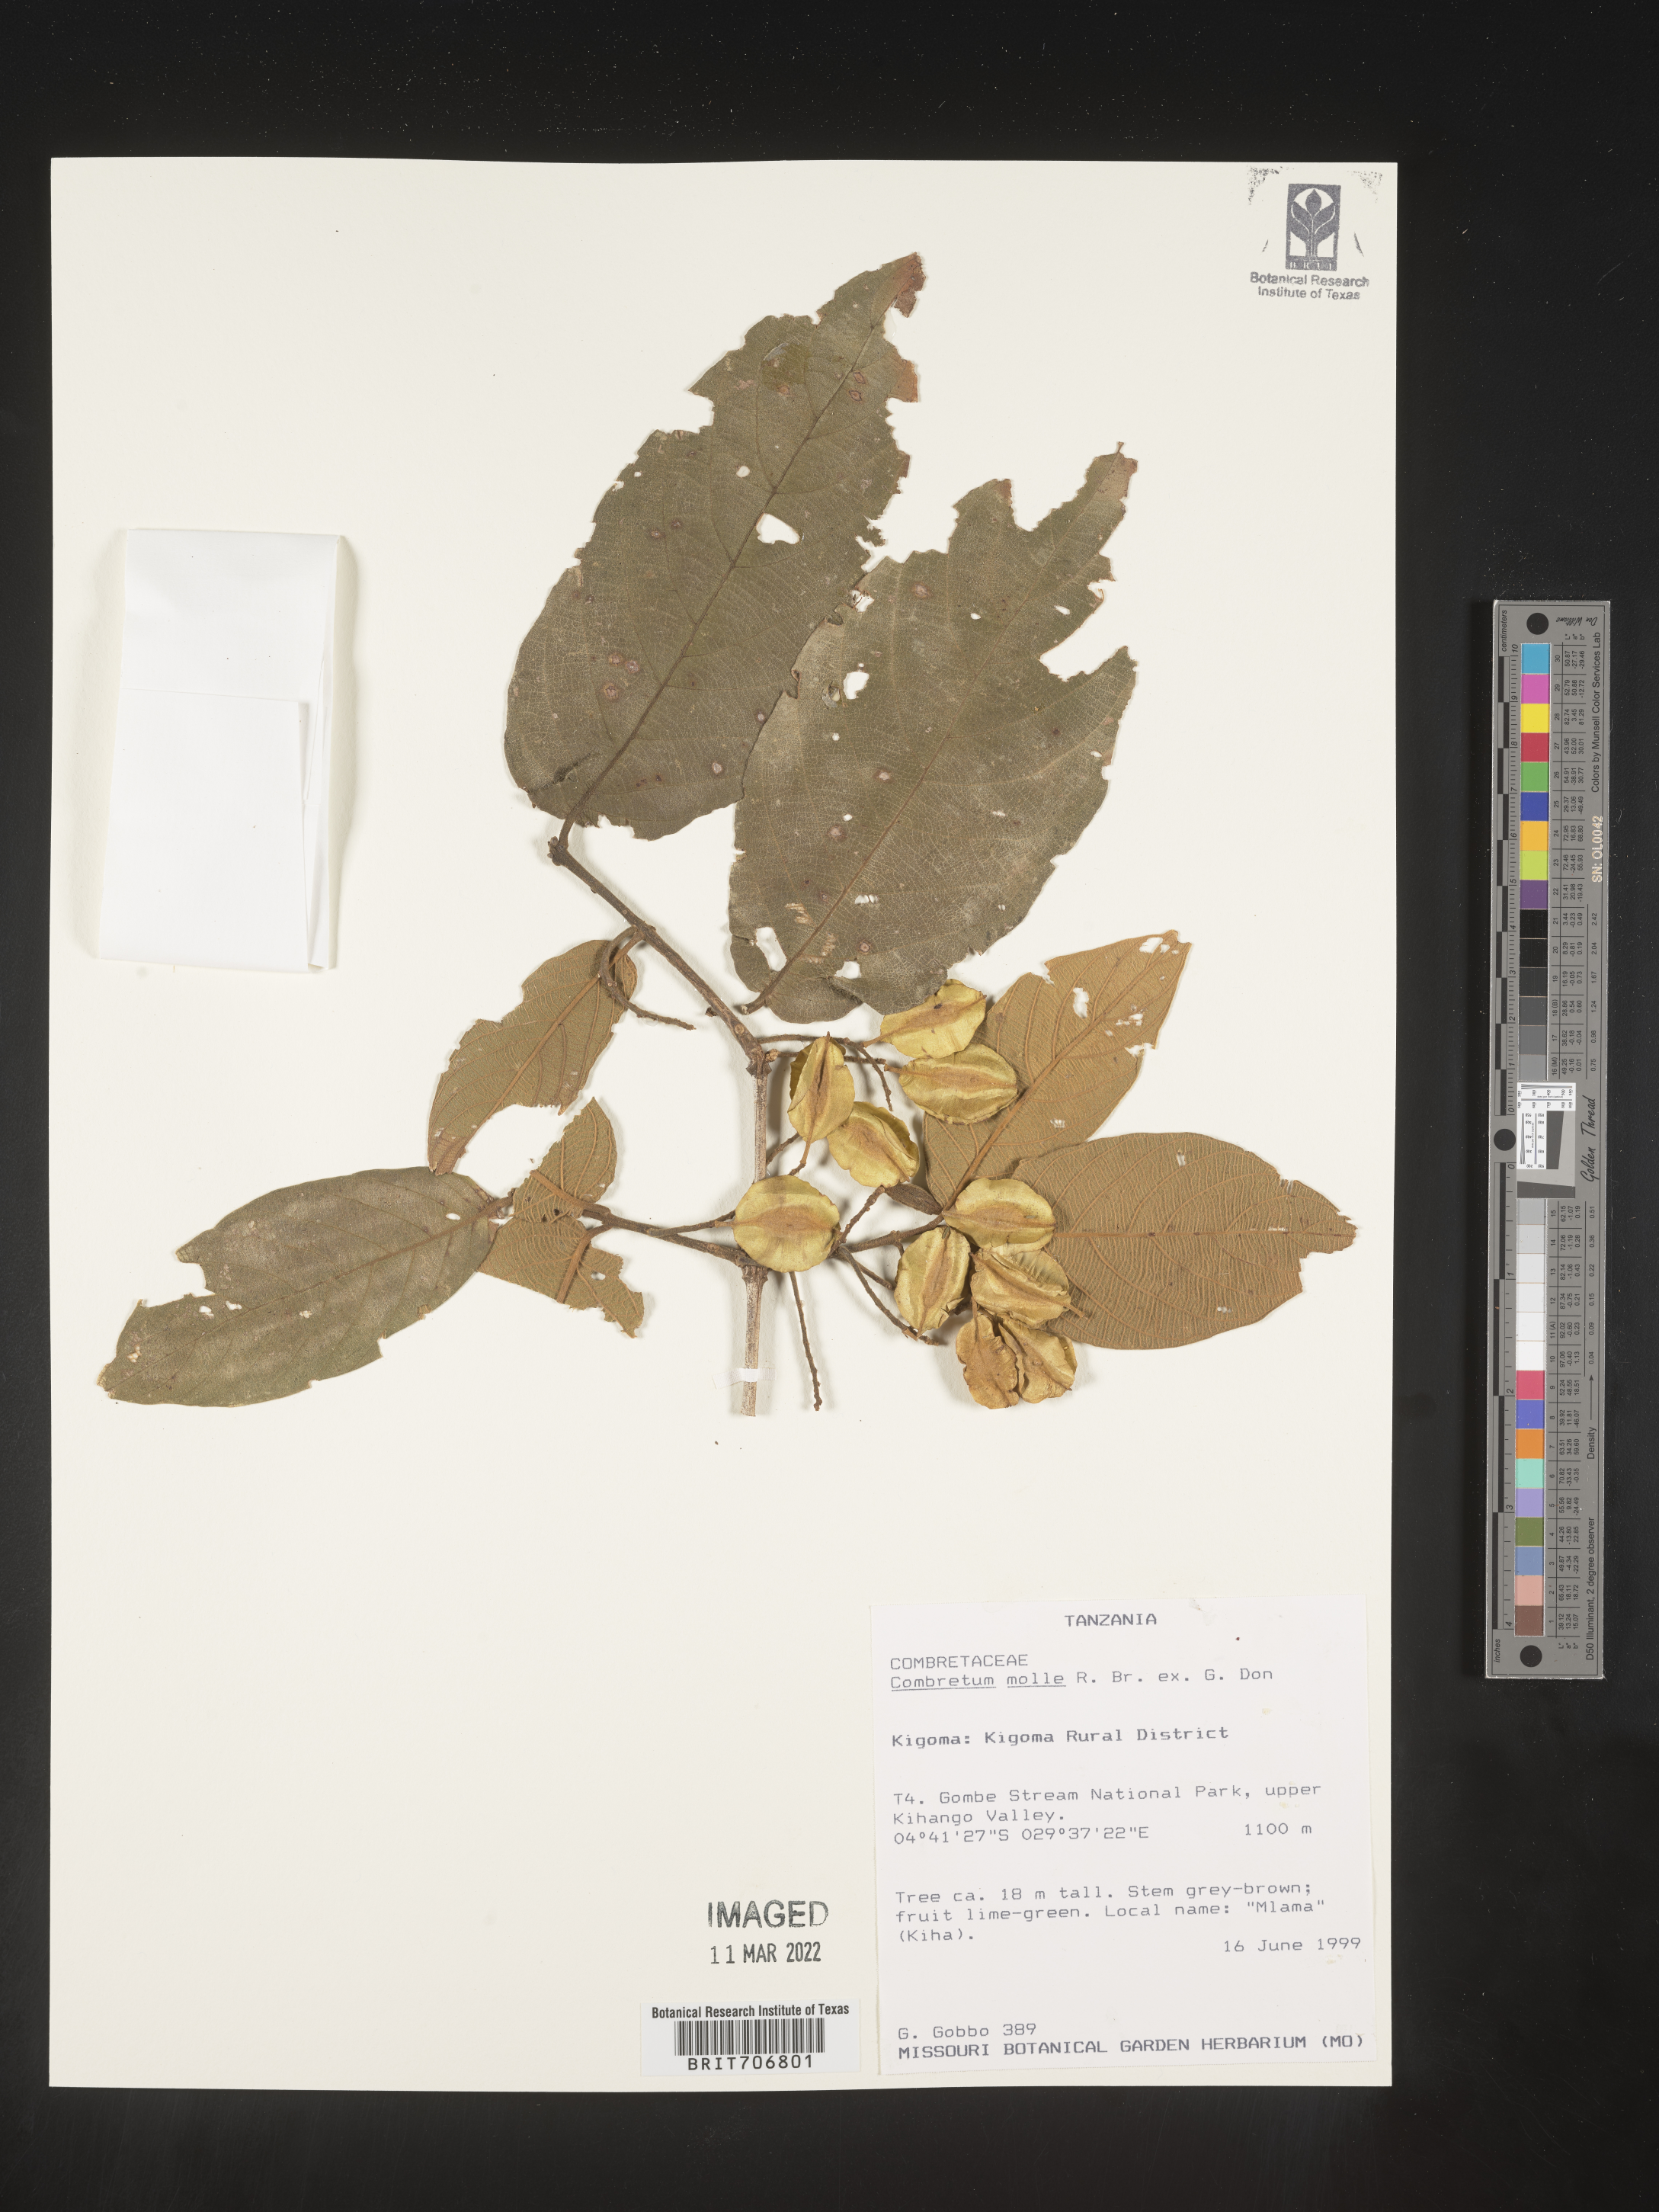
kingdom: Plantae
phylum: Tracheophyta
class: Magnoliopsida
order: Myrtales
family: Combretaceae
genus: Combretum
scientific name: Combretum
